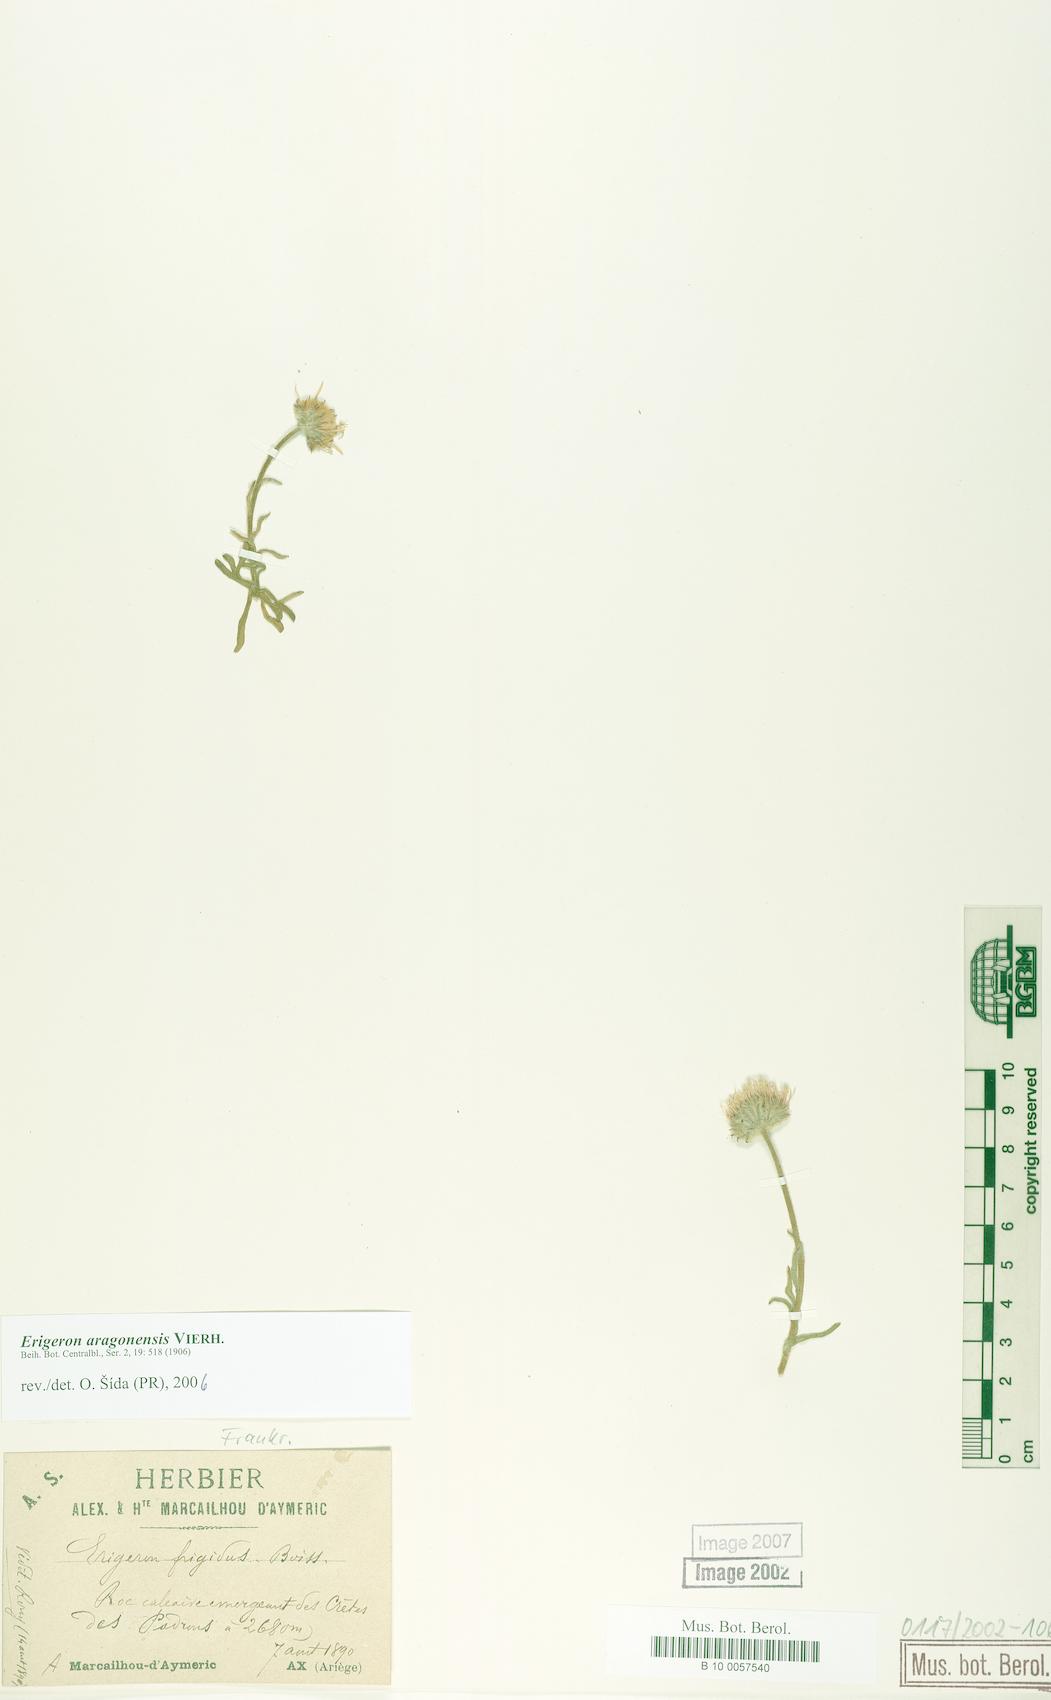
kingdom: Plantae
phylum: Tracheophyta
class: Magnoliopsida
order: Asterales
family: Asteraceae
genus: Erigeron
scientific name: Erigeron aragonensis
